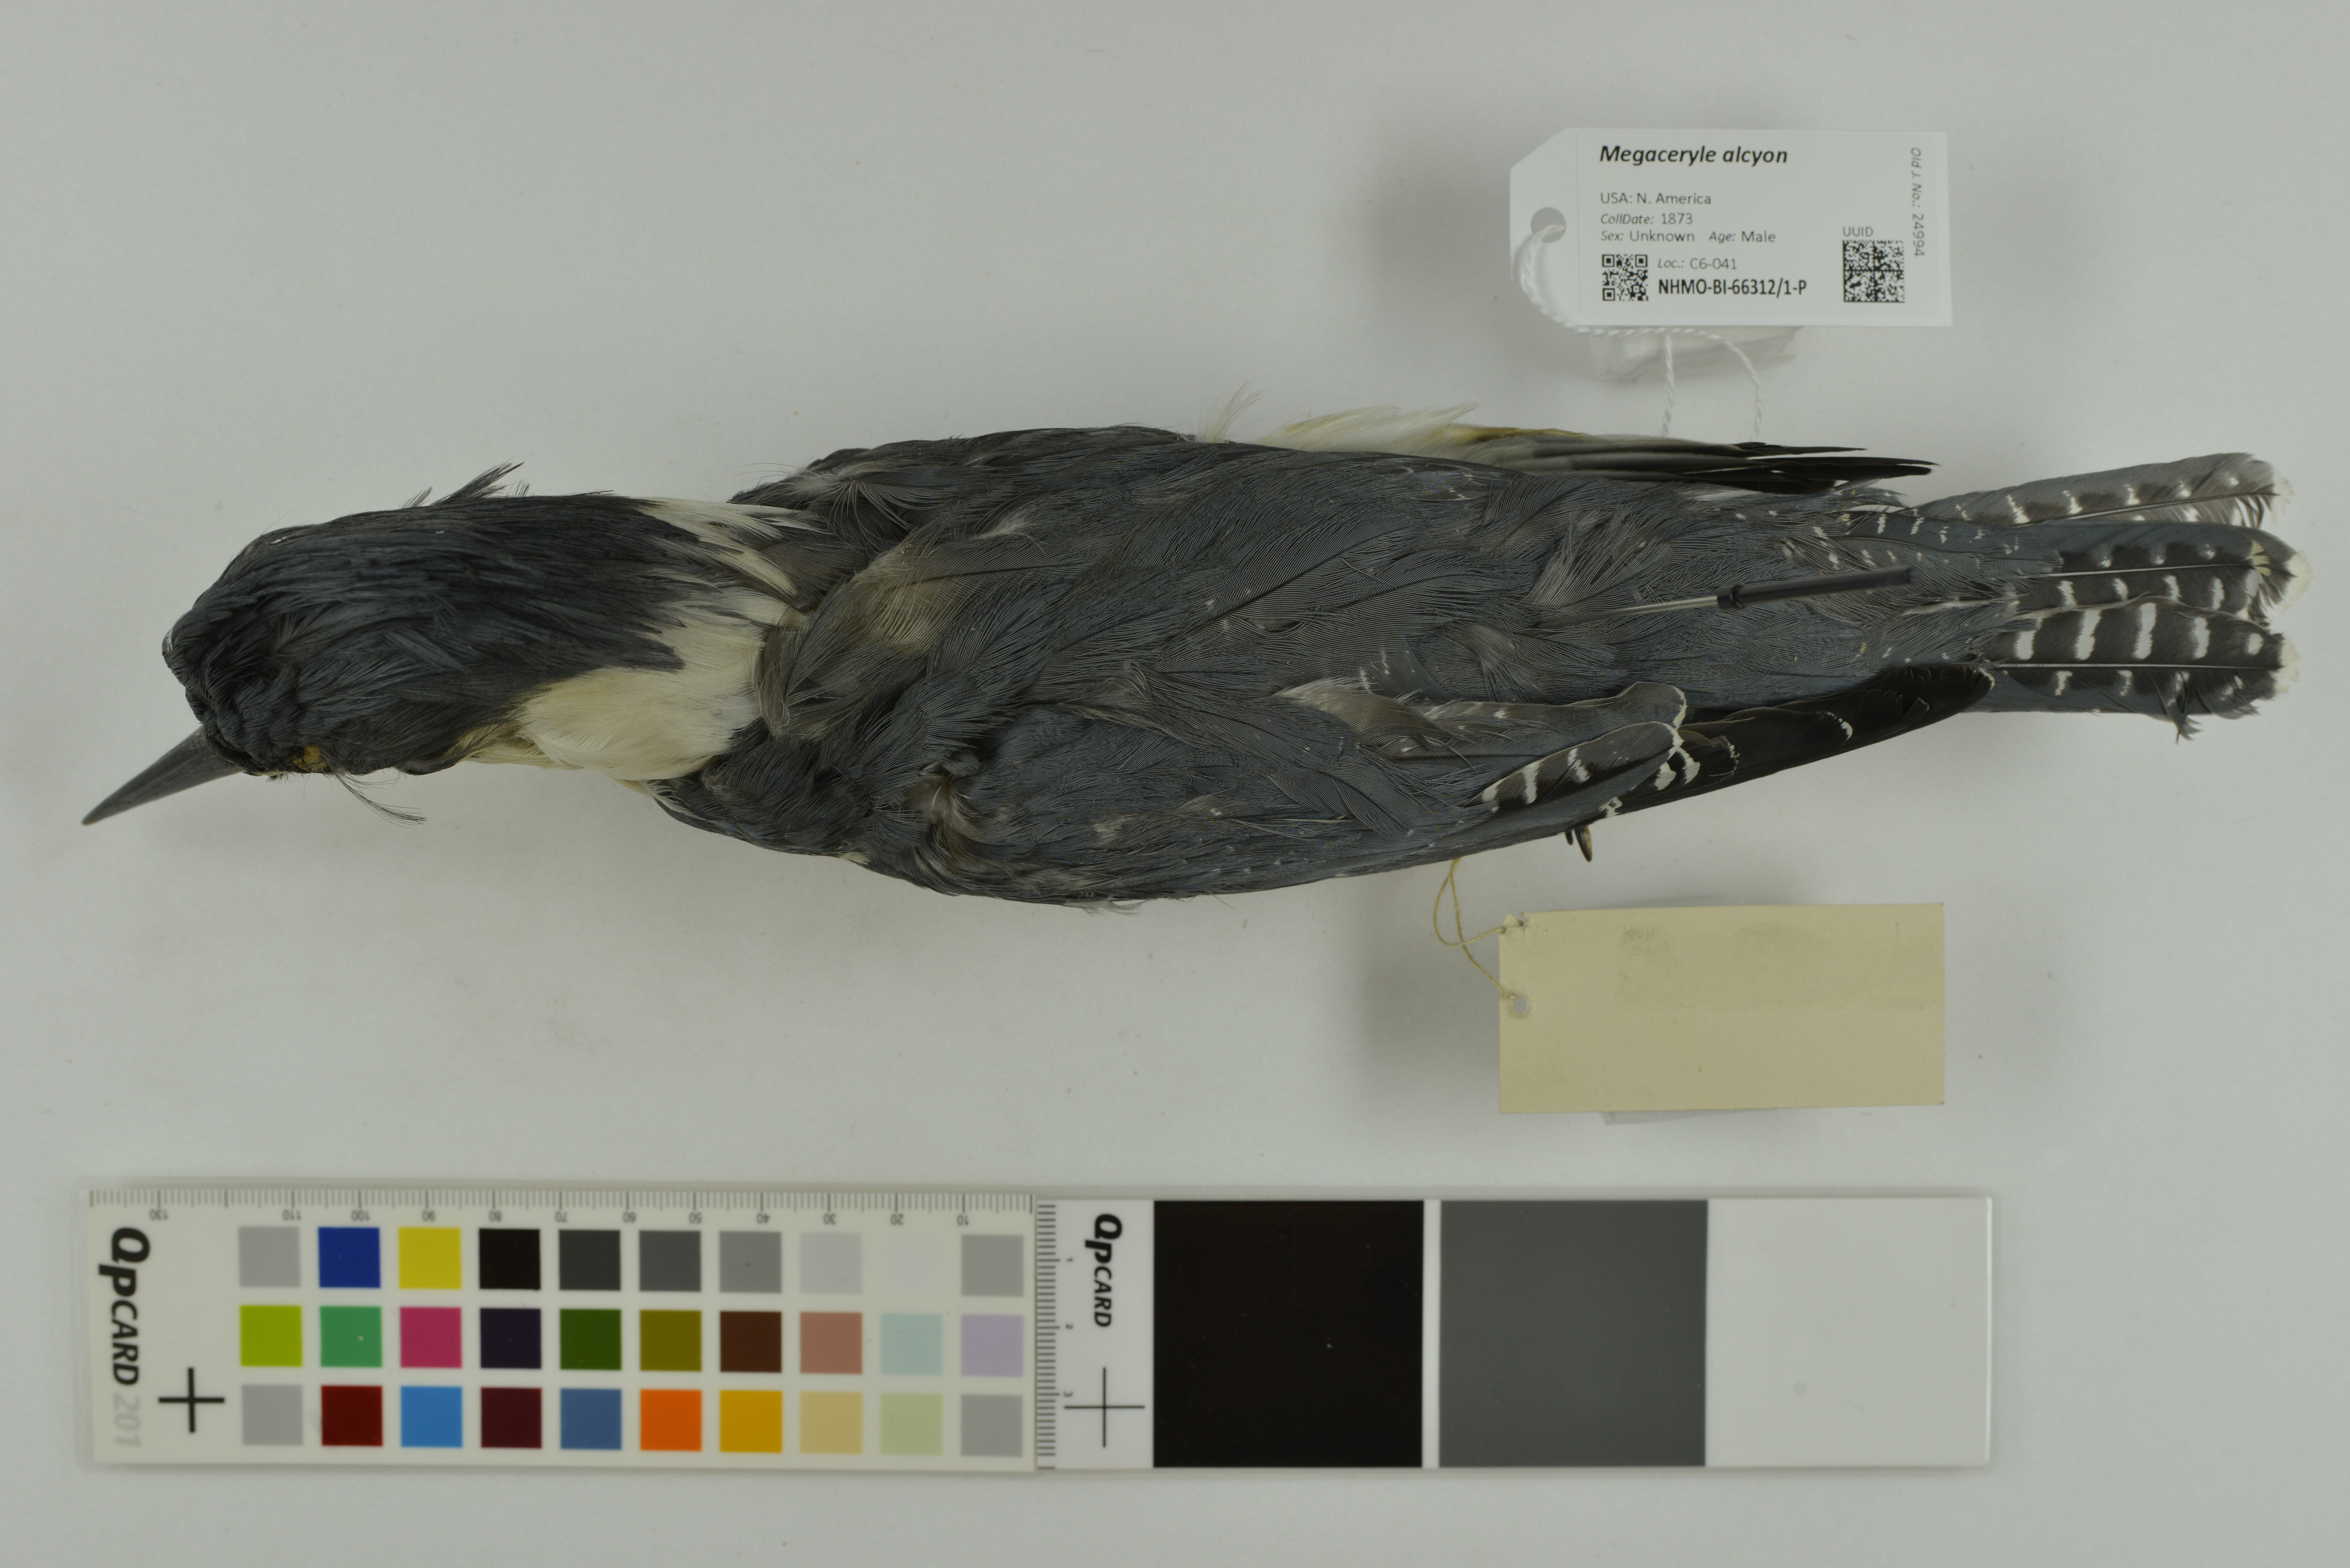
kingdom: Animalia
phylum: Chordata
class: Aves
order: Coraciiformes
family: Alcedinidae
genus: Megaceryle
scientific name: Megaceryle alcyon
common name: Belted kingfisher
